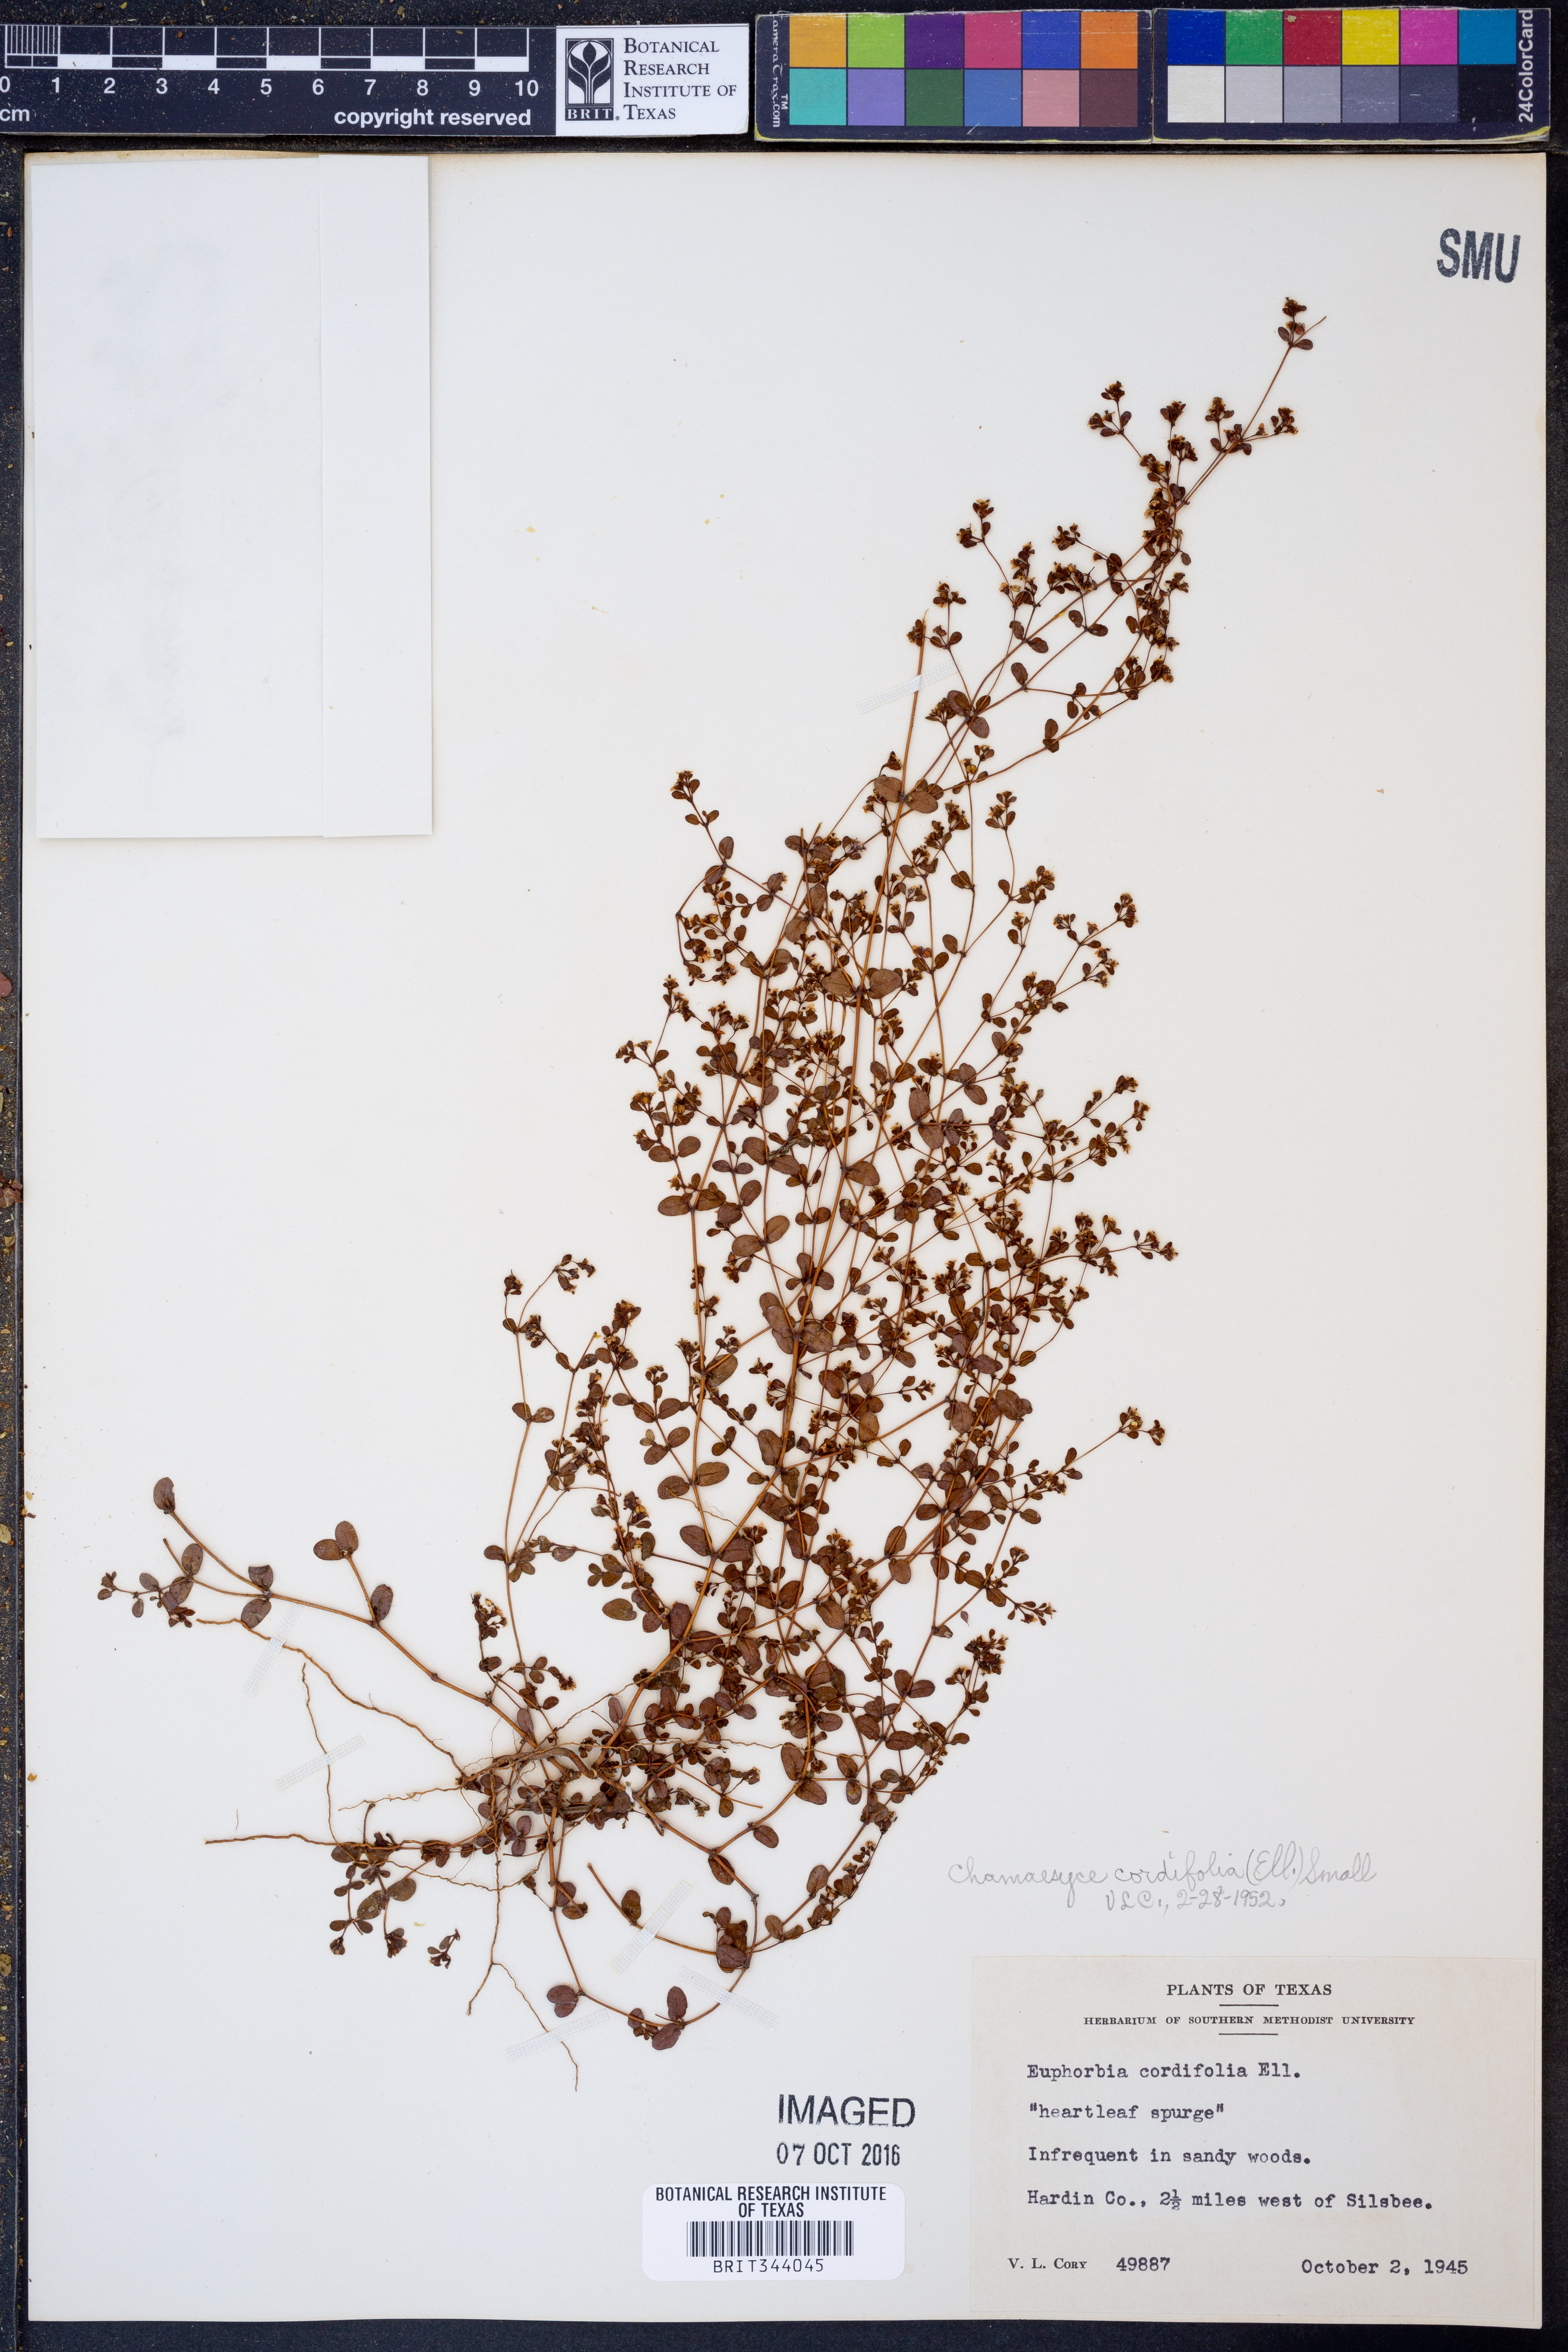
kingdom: Plantae
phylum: Tracheophyta
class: Magnoliopsida
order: Malpighiales
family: Euphorbiaceae
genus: Euphorbia
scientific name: Euphorbia cordifolia
